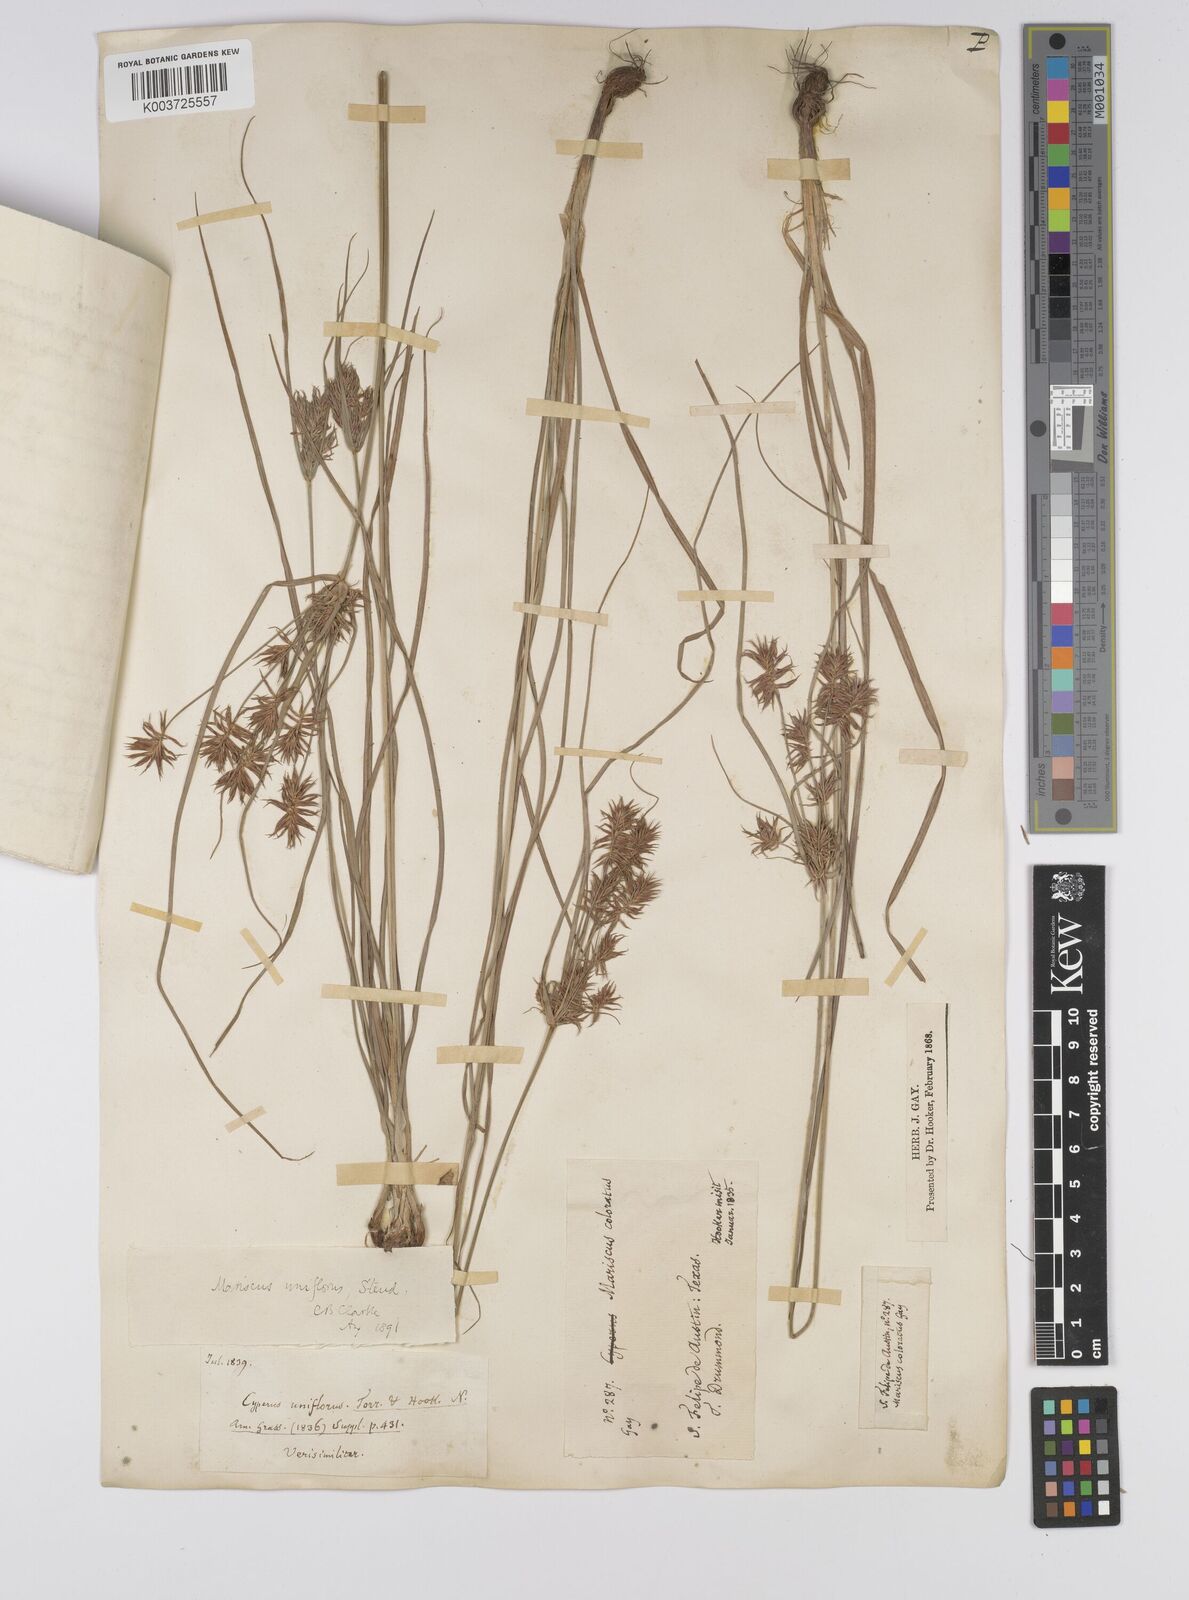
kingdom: Plantae
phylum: Tracheophyta
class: Liliopsida
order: Poales
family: Cyperaceae
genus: Cyperus
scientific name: Cyperus retroflexus
